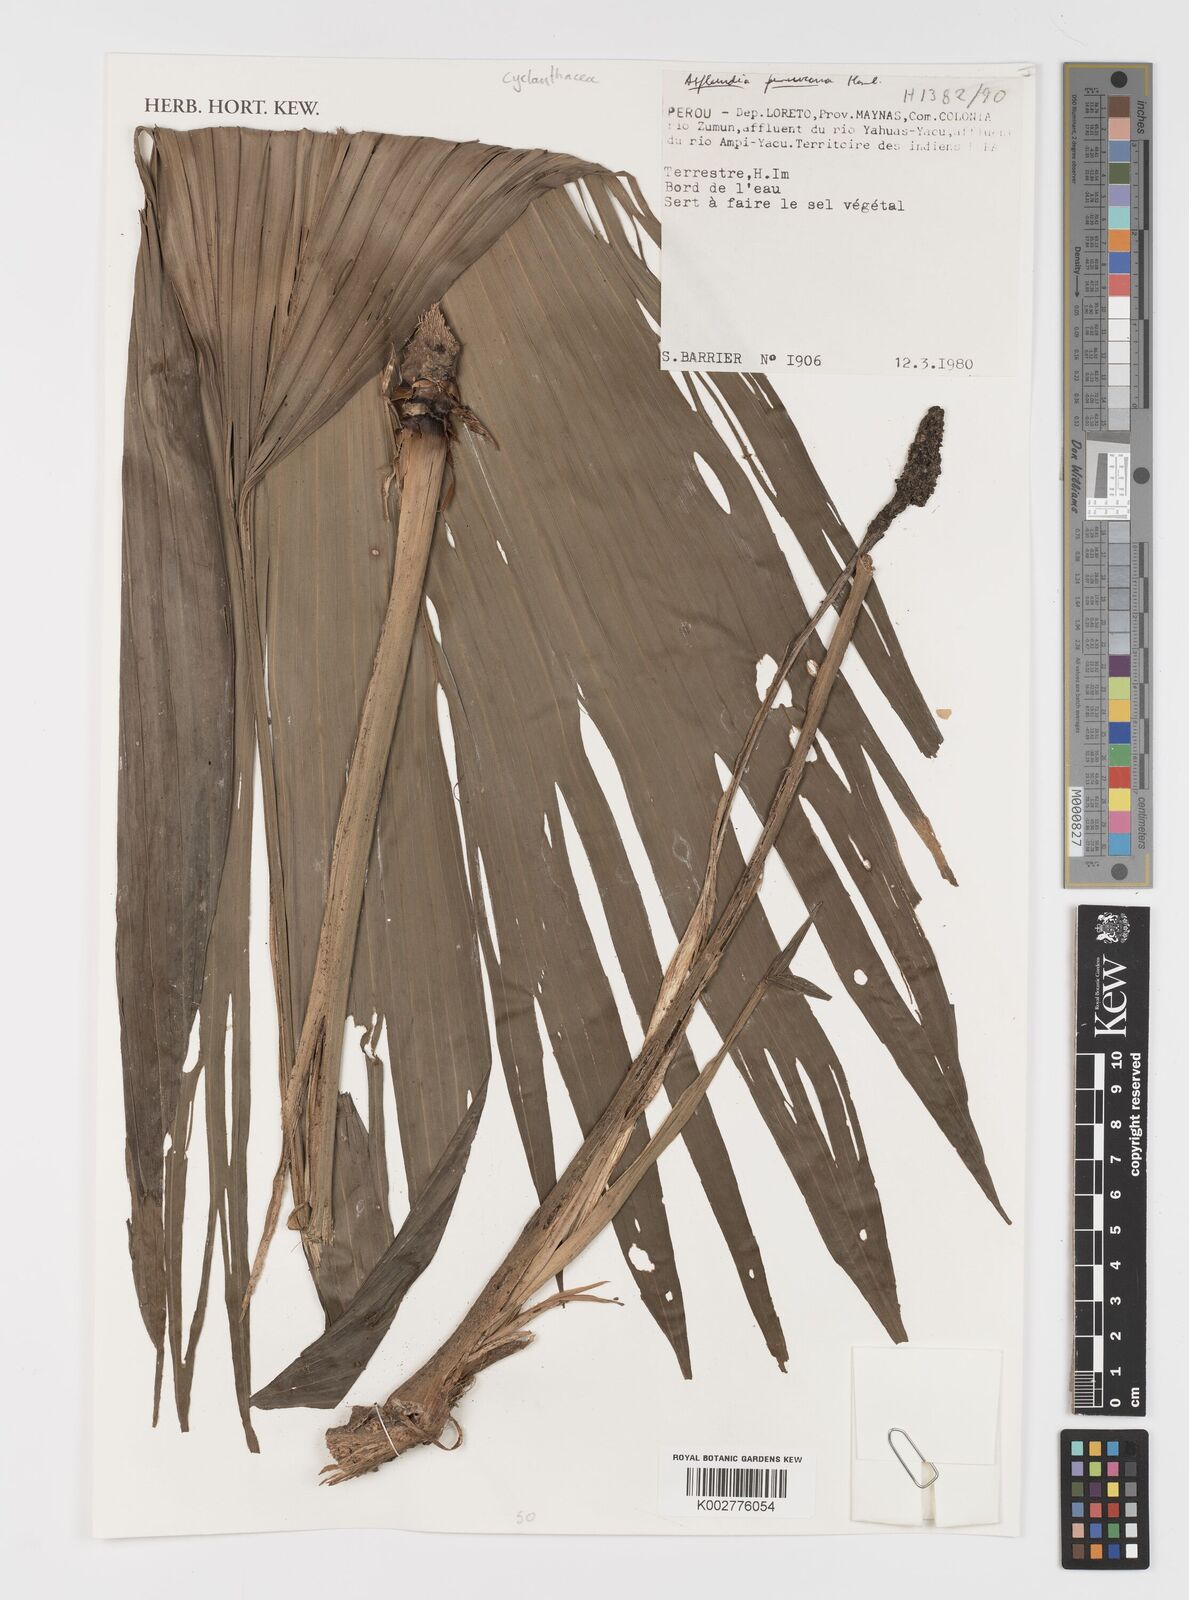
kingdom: Plantae
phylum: Tracheophyta
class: Liliopsida
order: Pandanales
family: Cyclanthaceae
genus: Asplundia
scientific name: Asplundia peruviana
